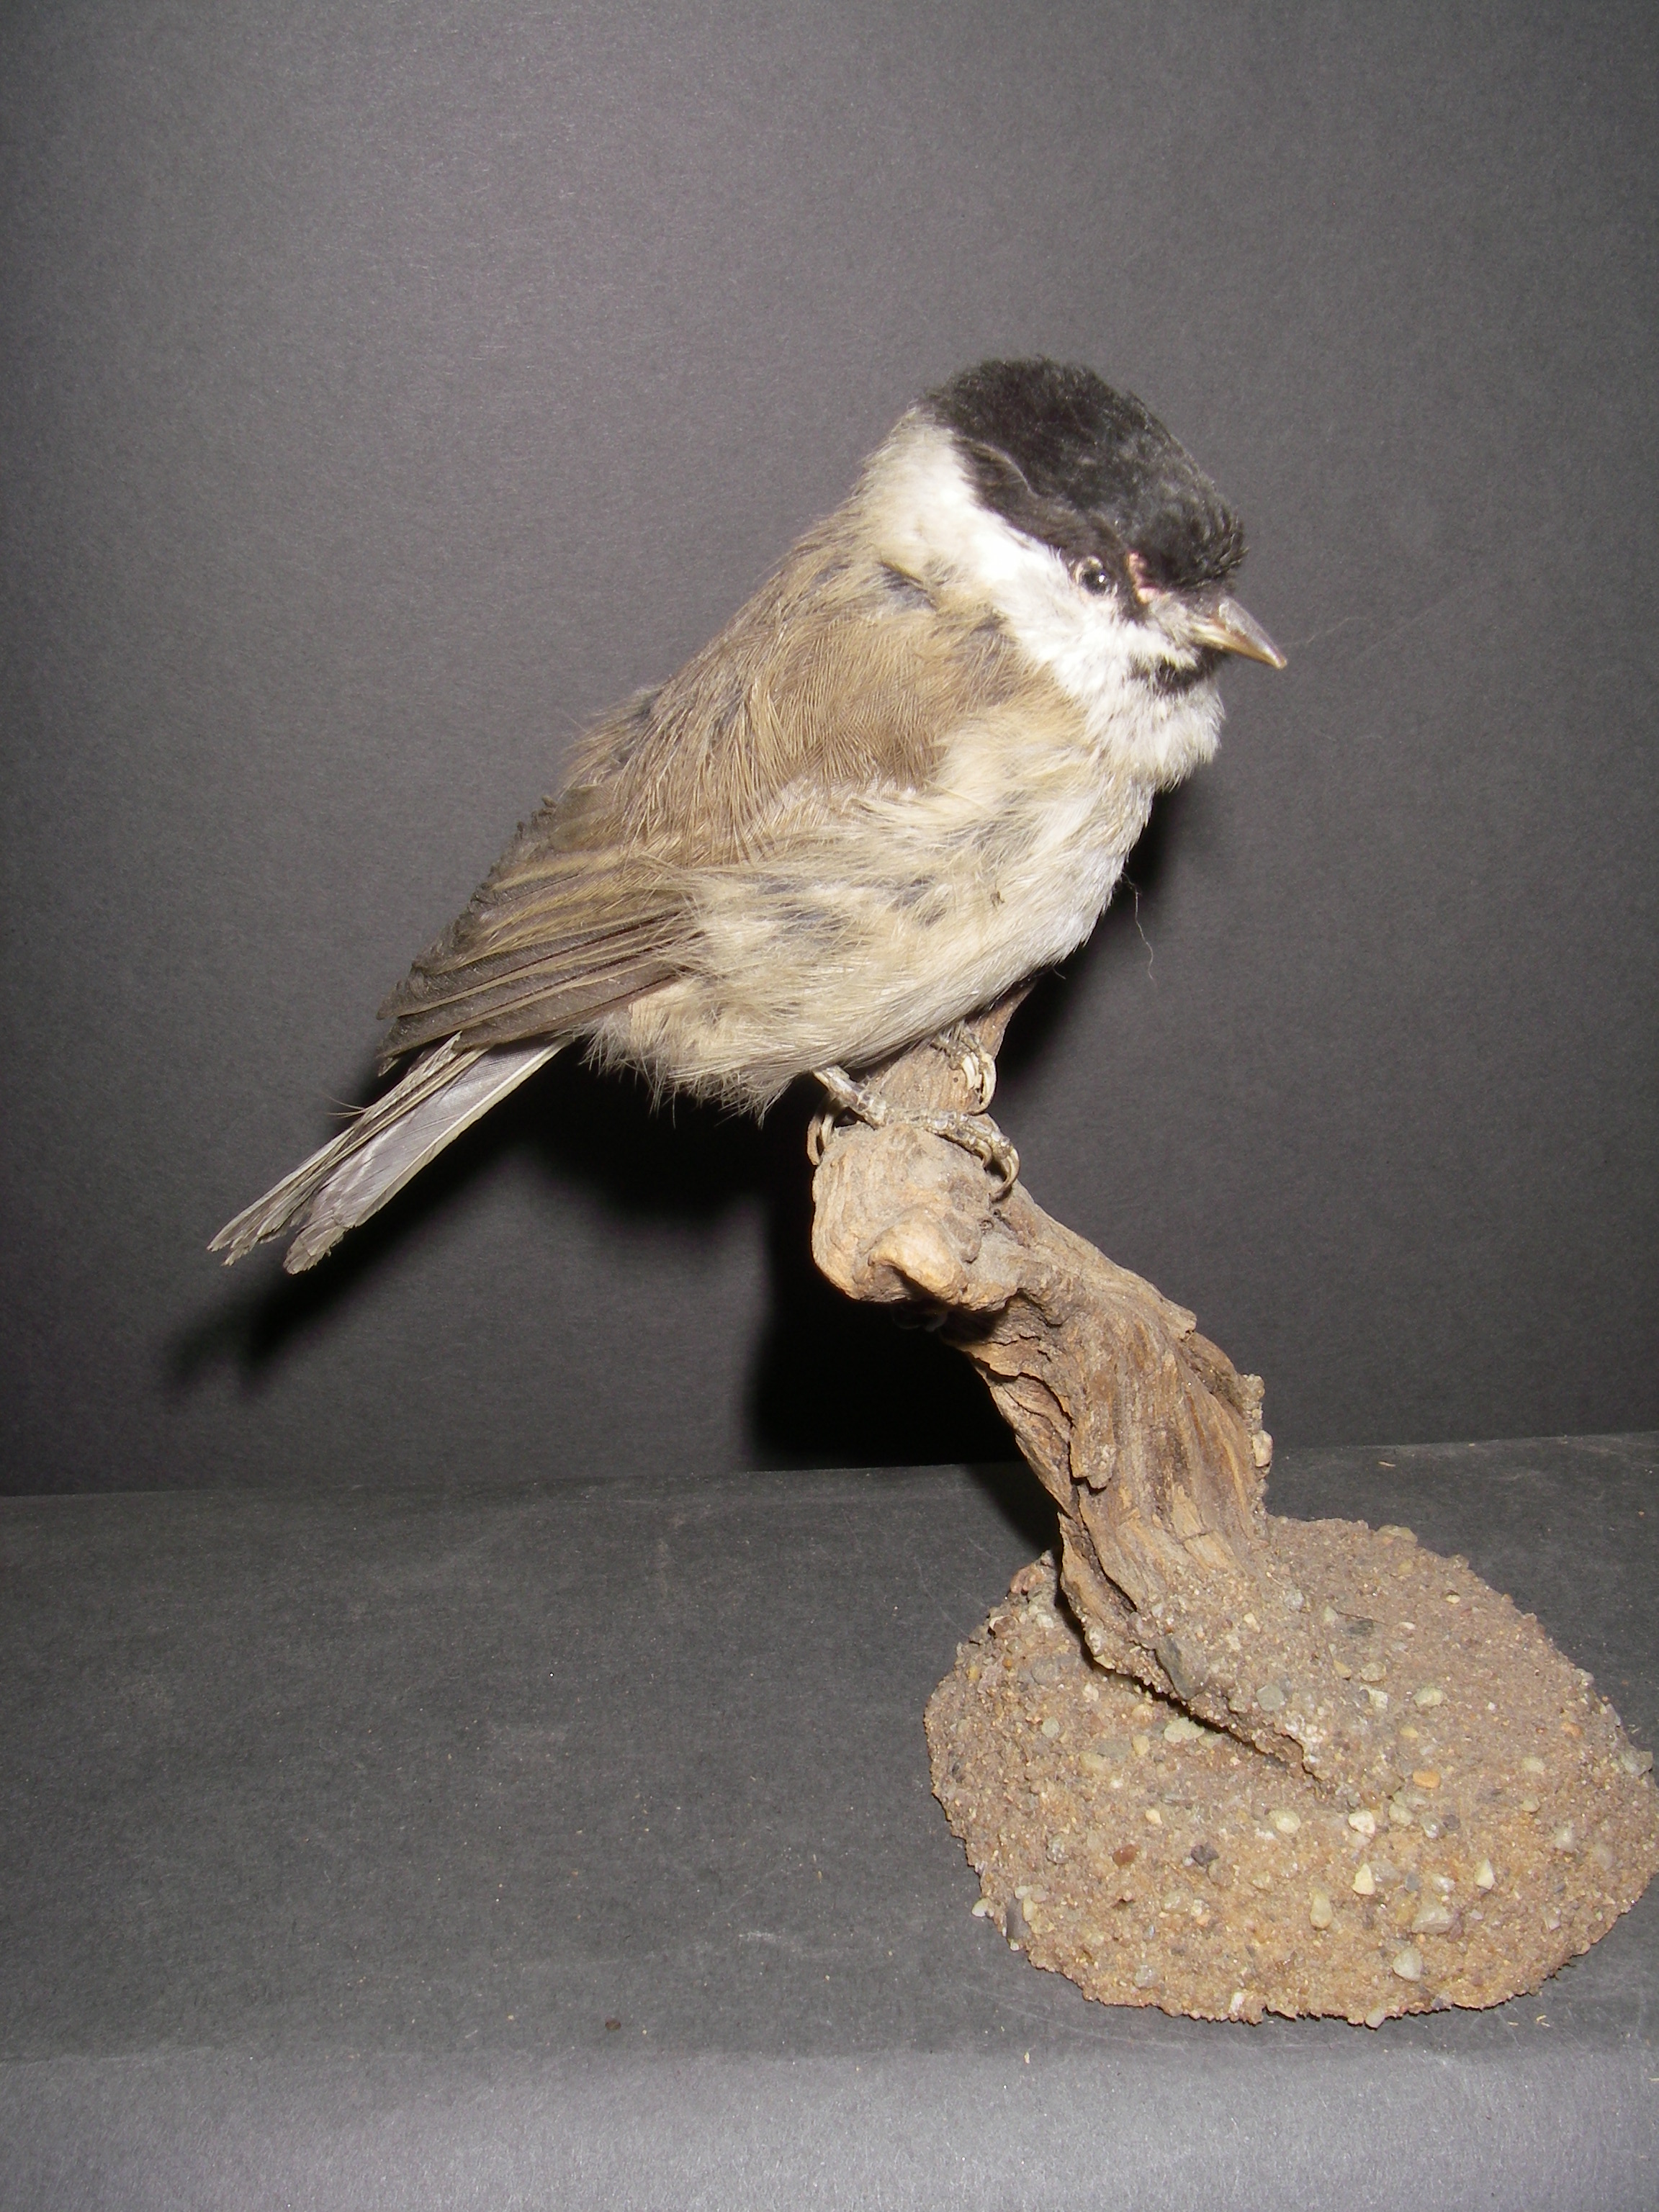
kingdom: Animalia
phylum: Chordata
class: Aves
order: Passeriformes
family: Paridae
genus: Poecile
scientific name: Poecile palustris
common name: Marsh tit
